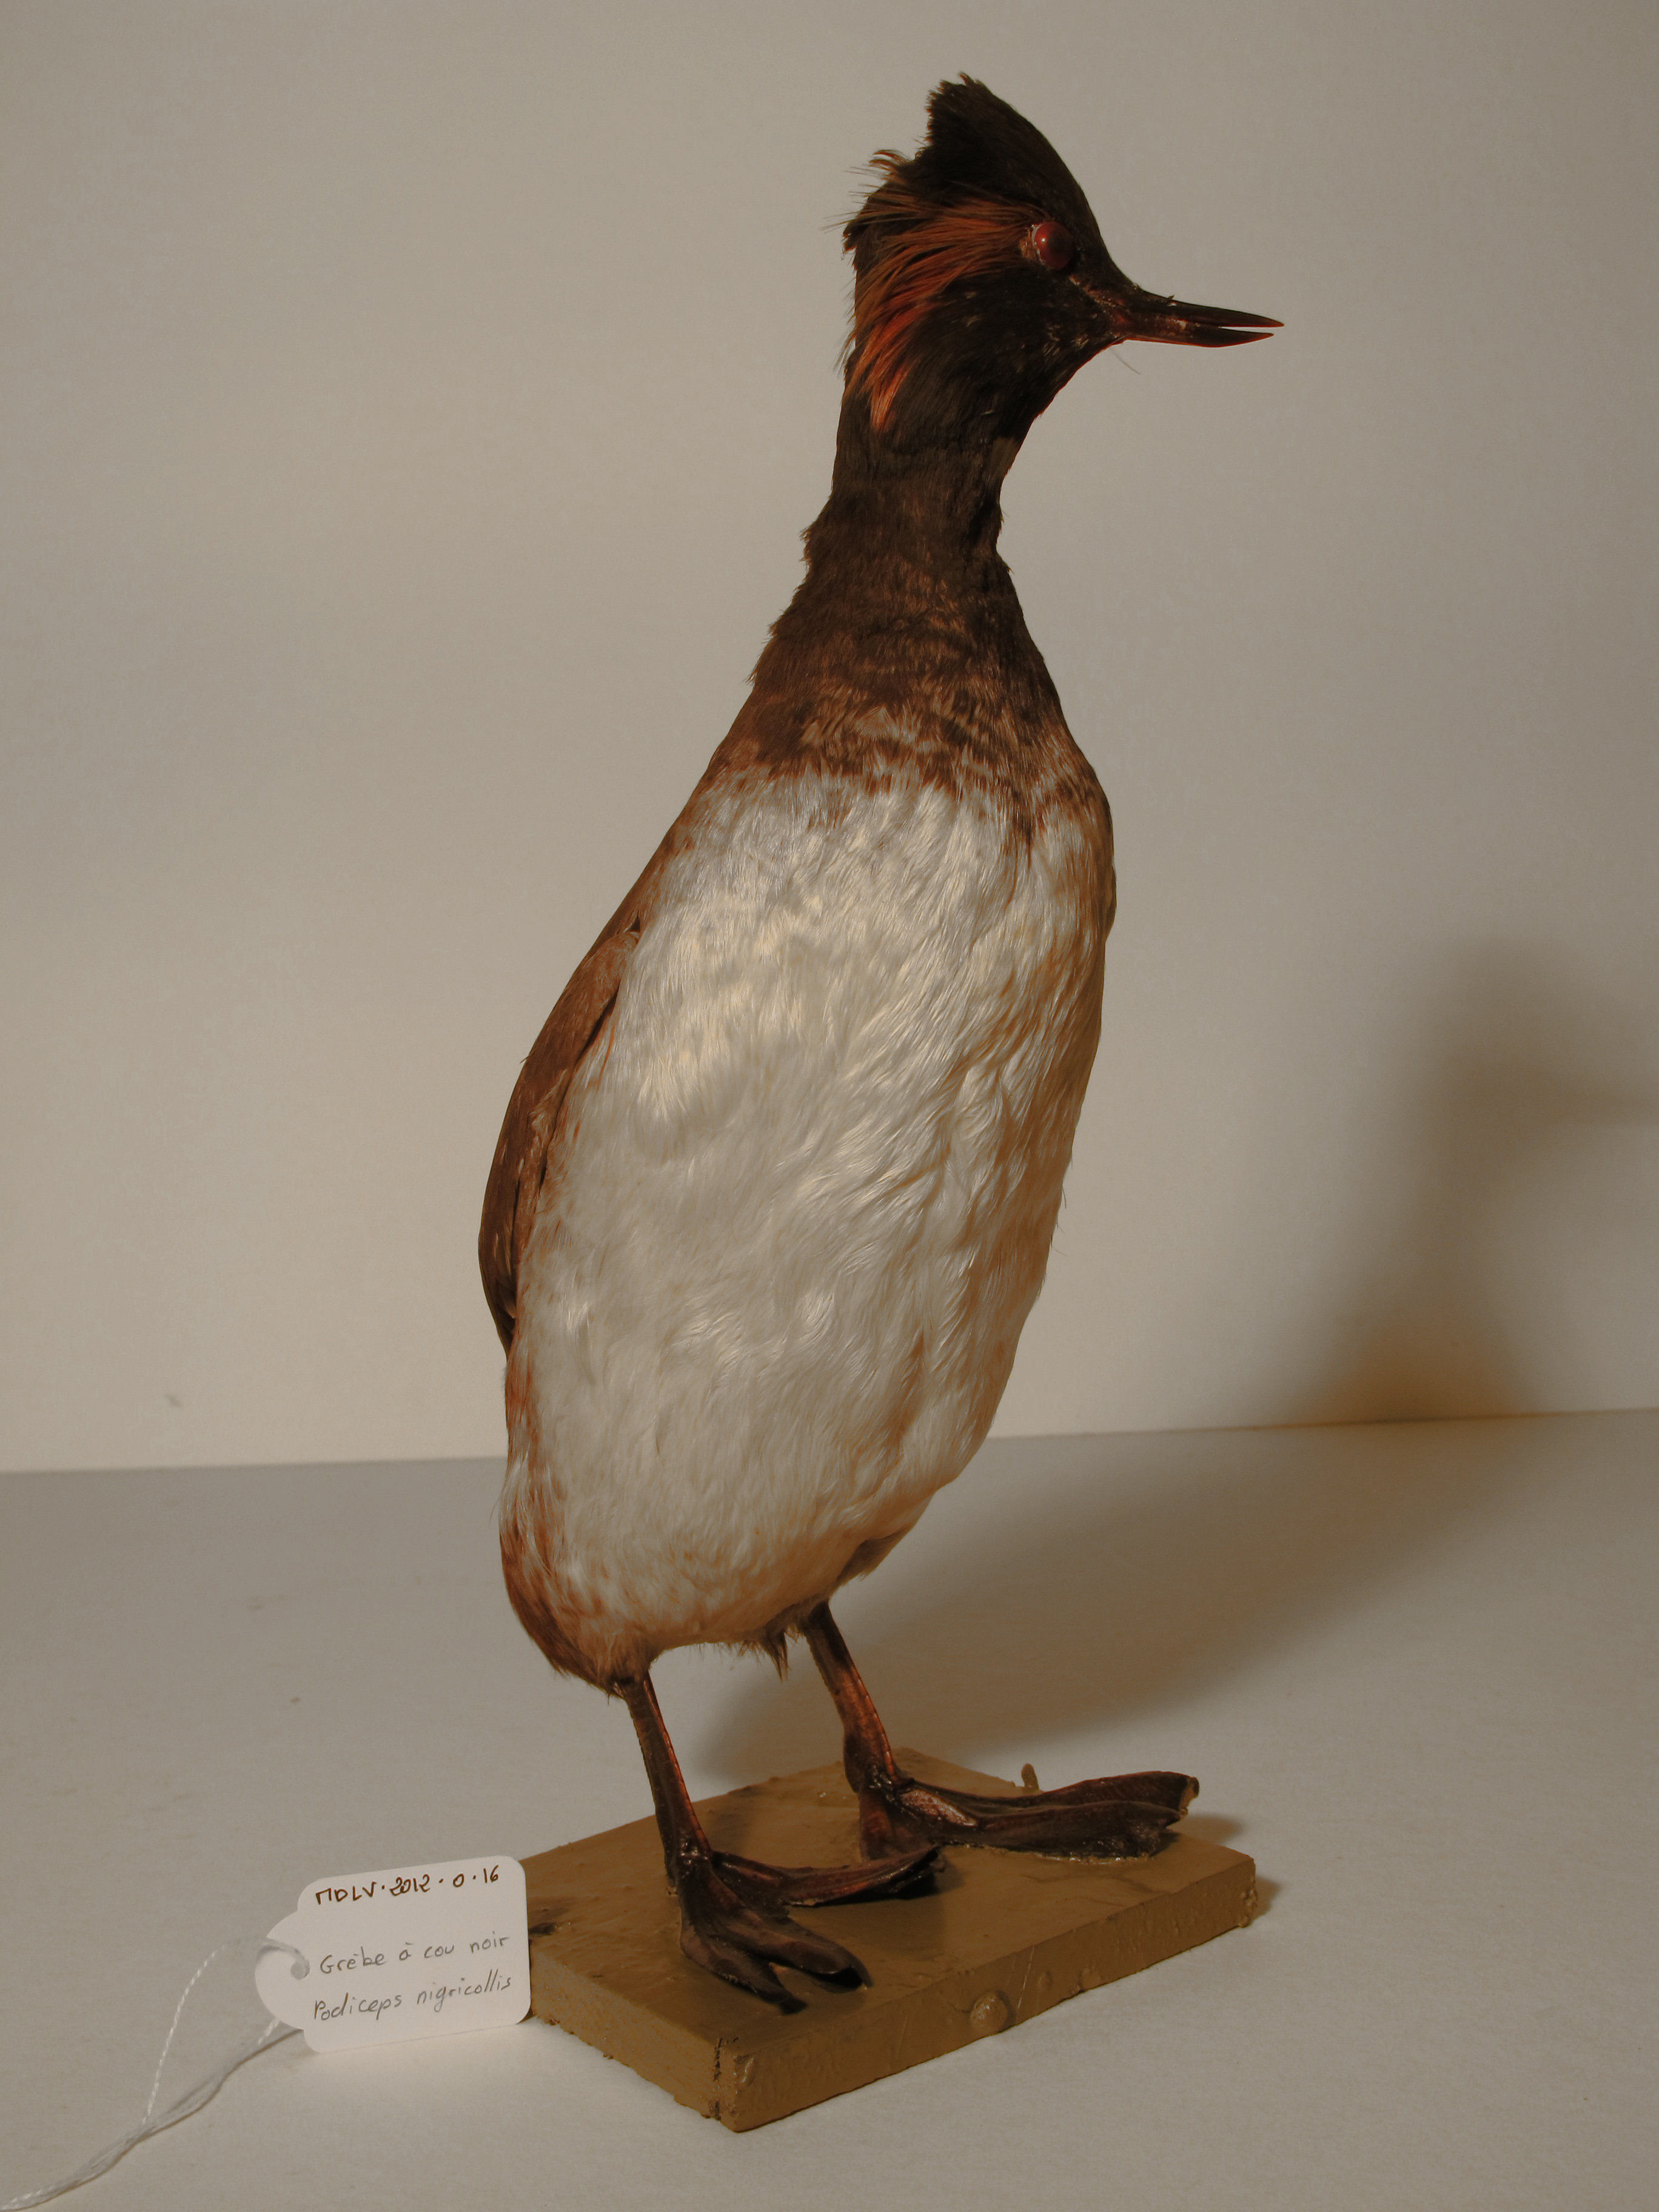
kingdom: Animalia
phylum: Chordata
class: Aves
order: Podicipediformes
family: Podicipedidae
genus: Podiceps
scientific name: Podiceps nigricollis
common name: Black-necked Grebe
